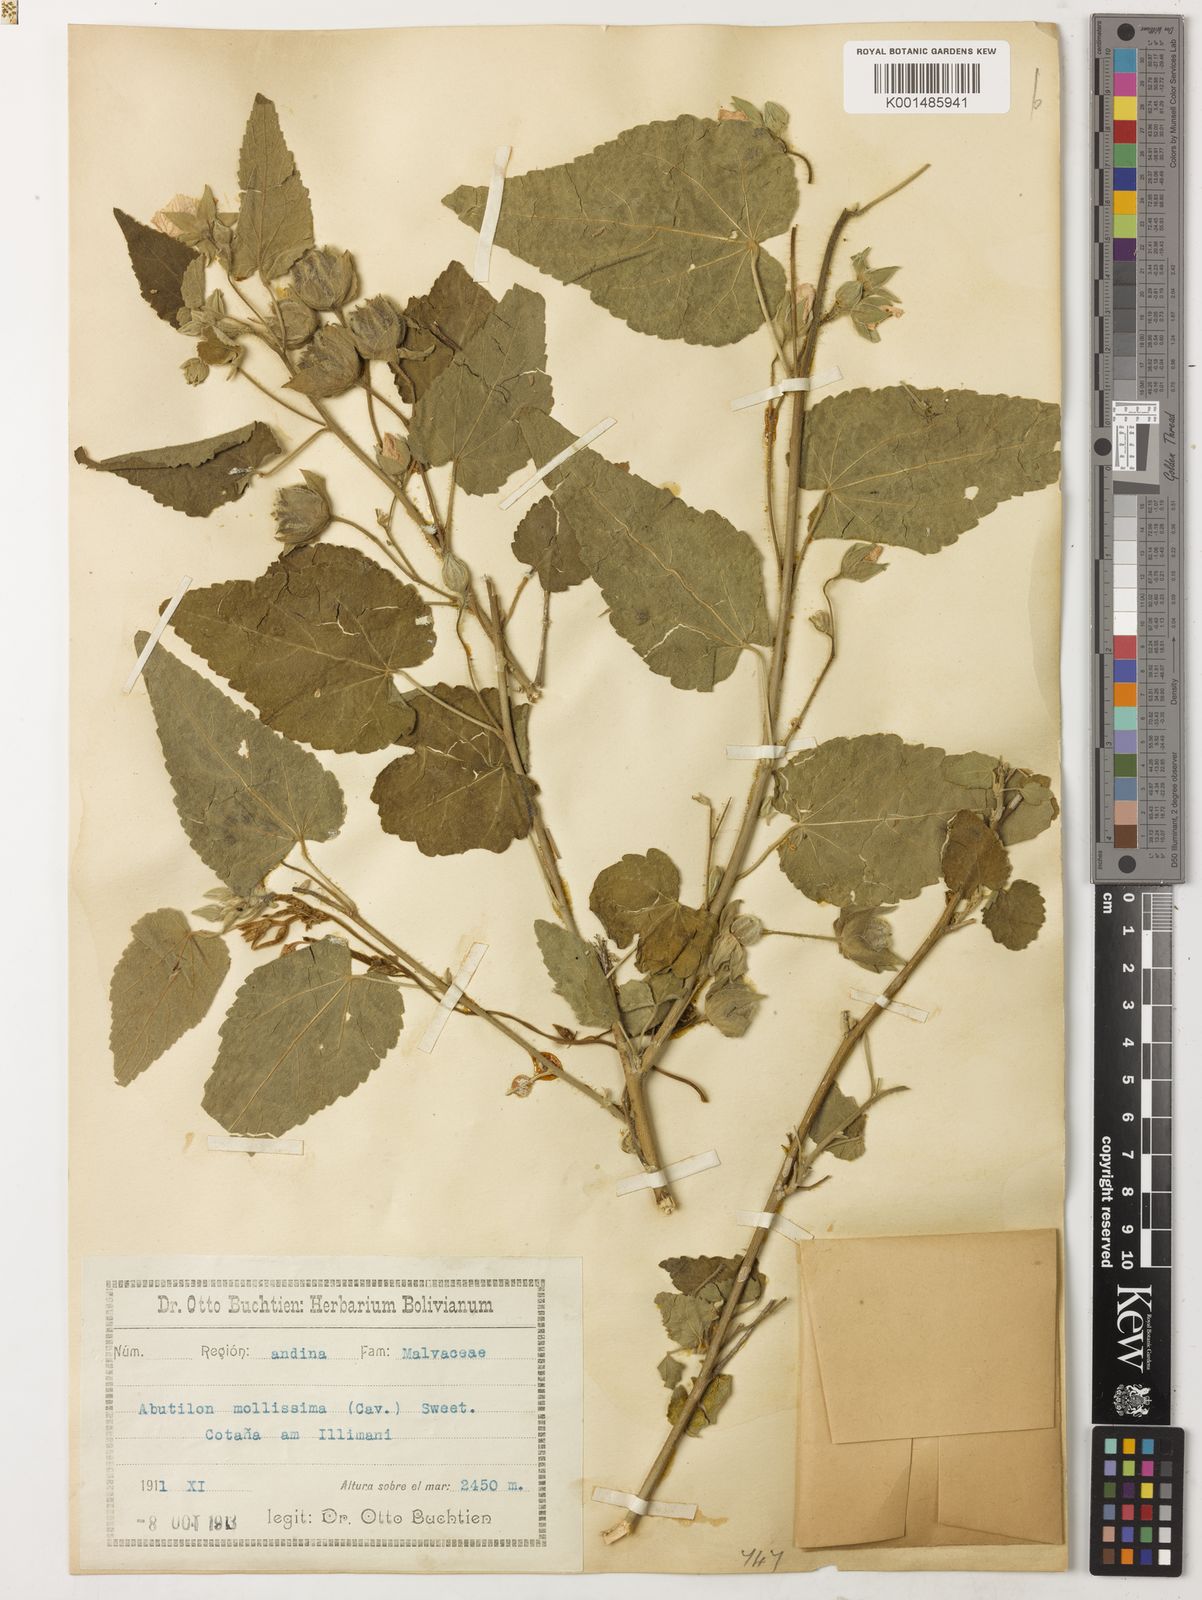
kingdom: Plantae
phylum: Tracheophyta
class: Magnoliopsida
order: Malvales
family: Malvaceae
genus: Abutilon
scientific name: Abutilon mollissimum
